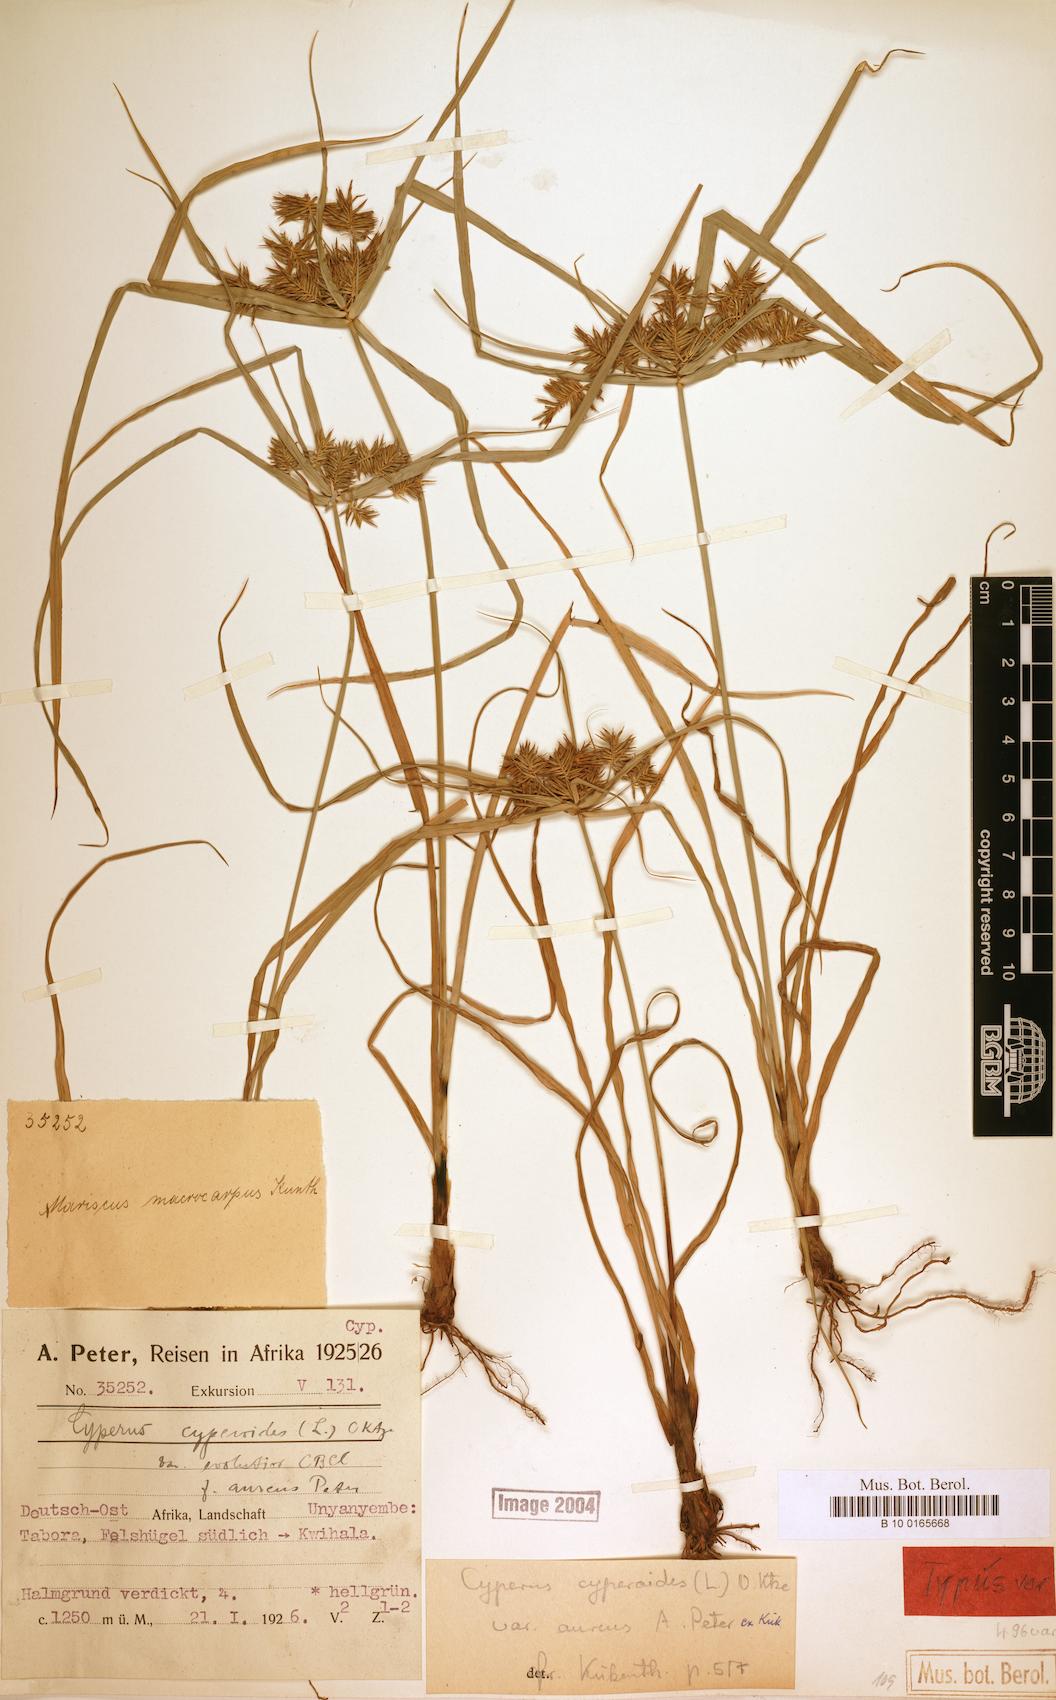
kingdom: Plantae
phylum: Tracheophyta
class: Liliopsida
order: Poales
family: Cyperaceae
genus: Cyperus
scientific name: Cyperus cyperoides
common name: Pacific island flat sedge
